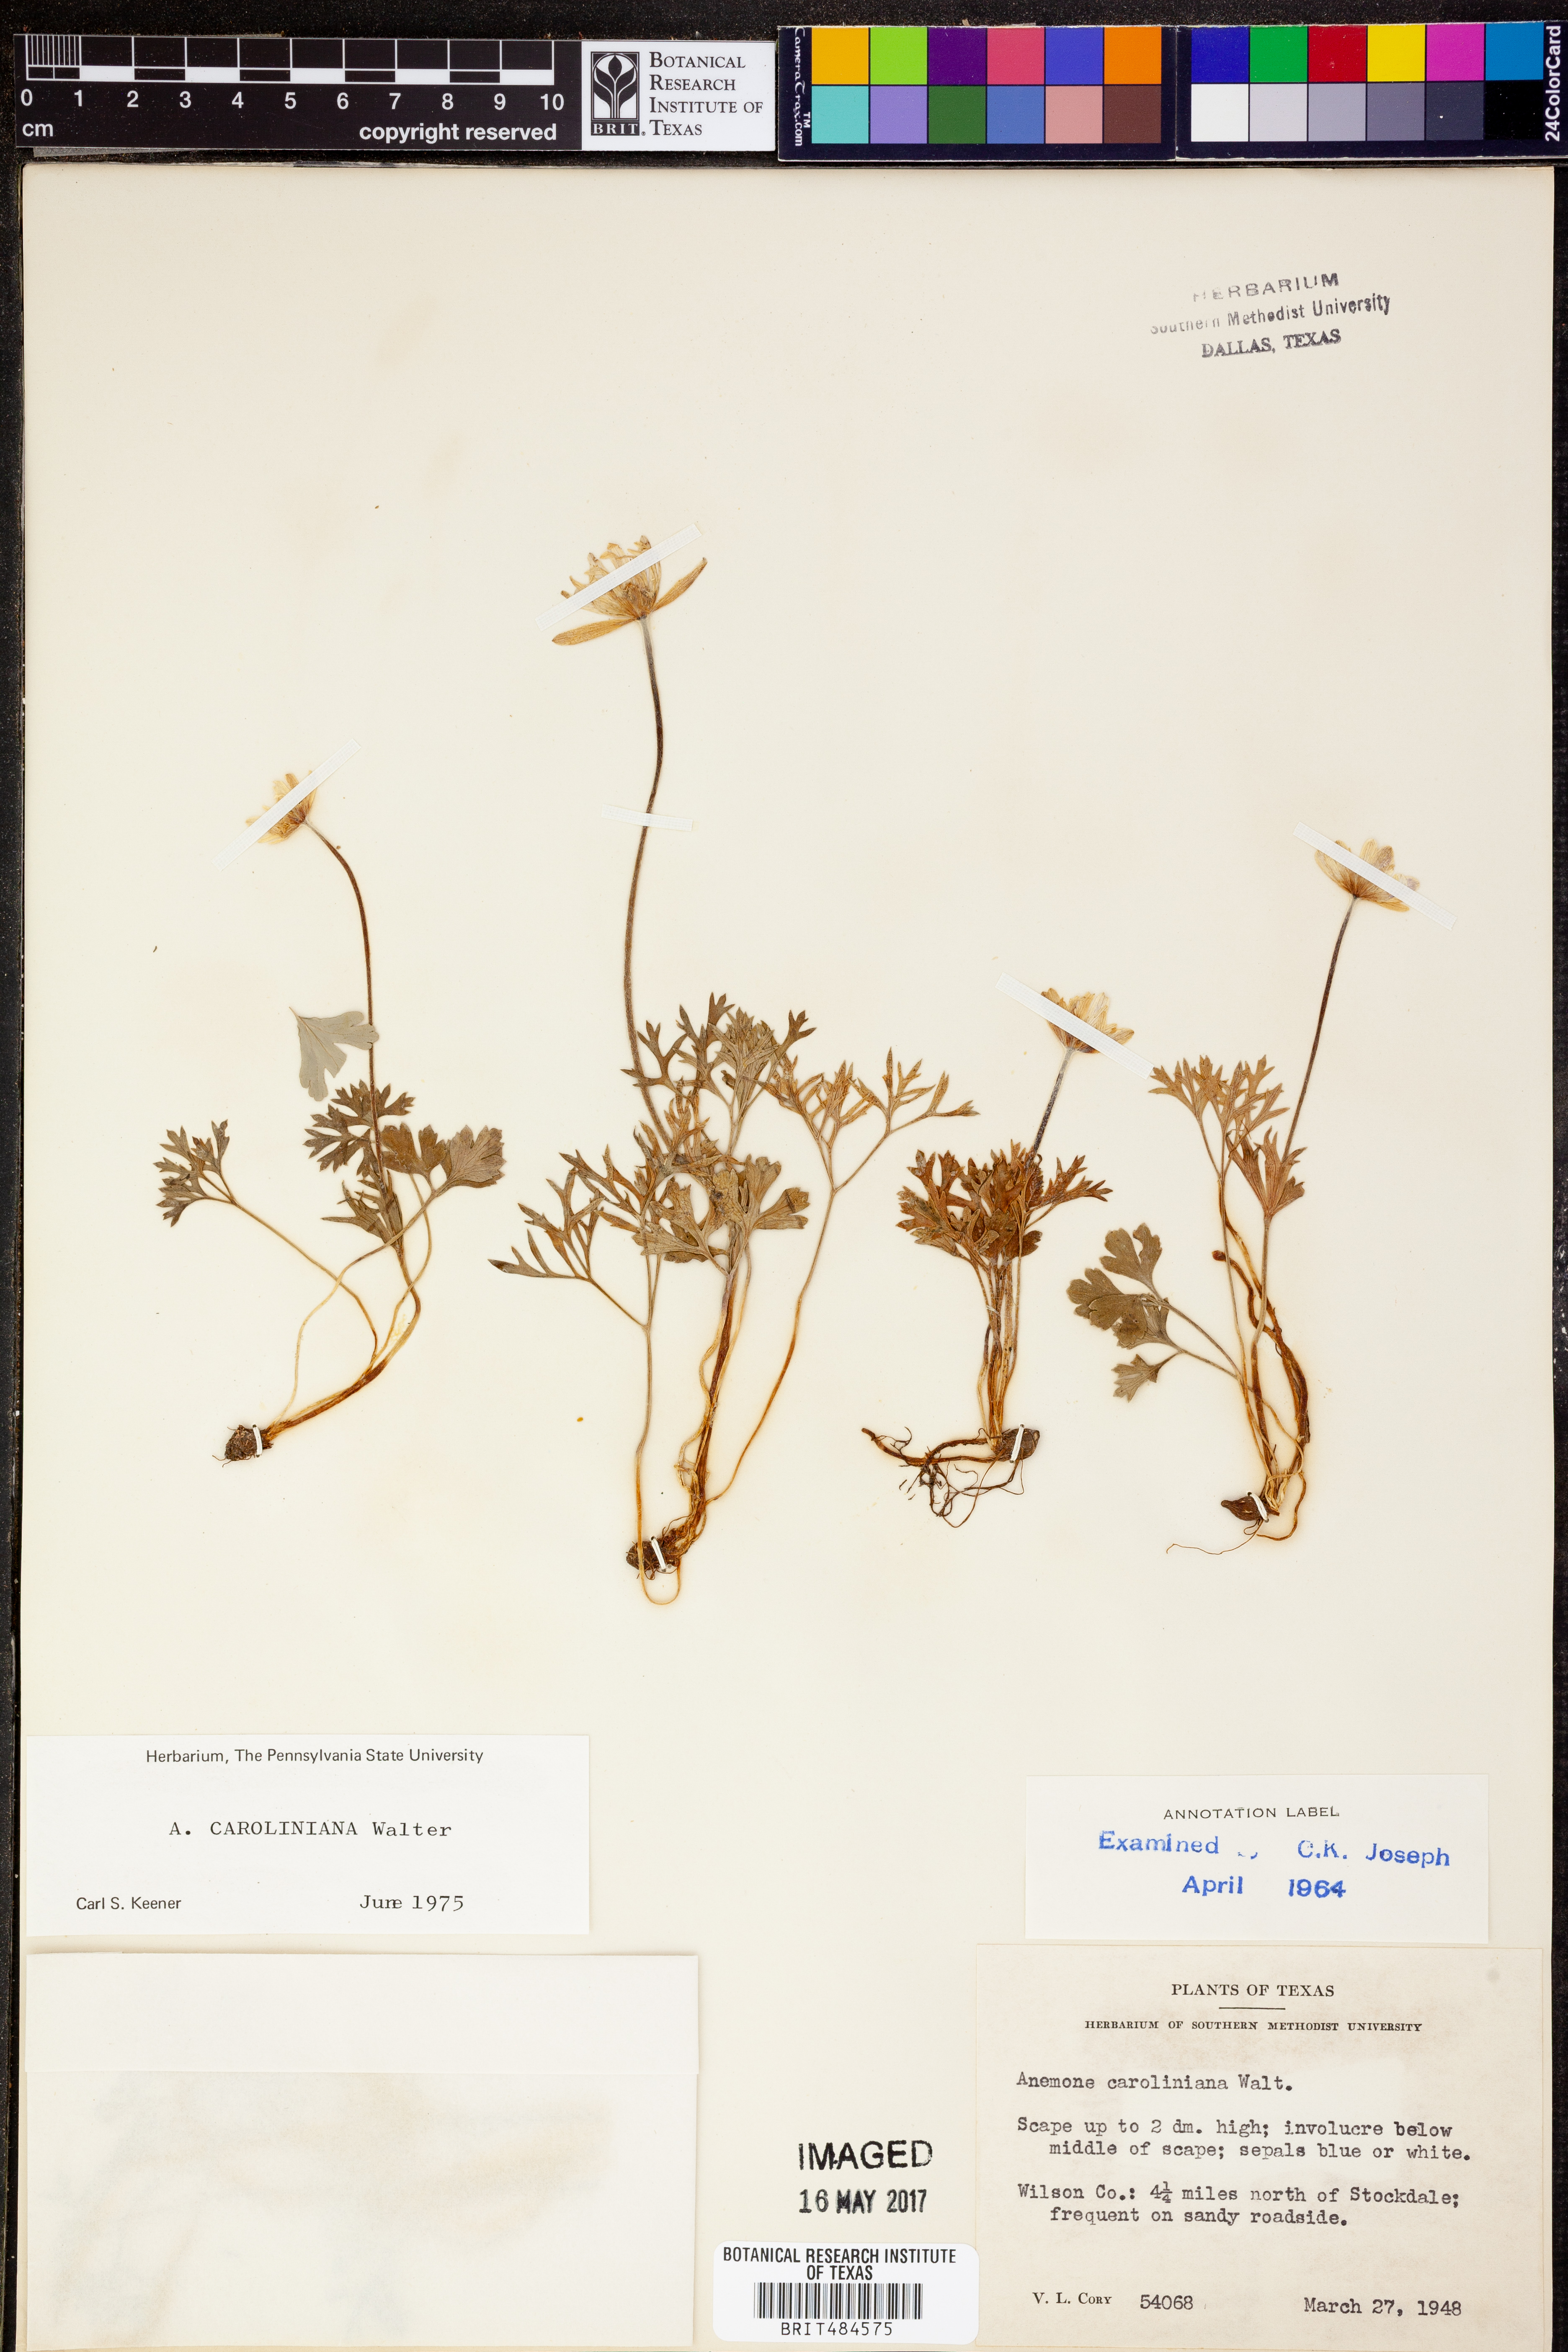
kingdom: Plantae
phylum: Tracheophyta
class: Magnoliopsida
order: Ranunculales
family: Ranunculaceae
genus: Anemone
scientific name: Anemone caroliniana
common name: Carolina anemone
